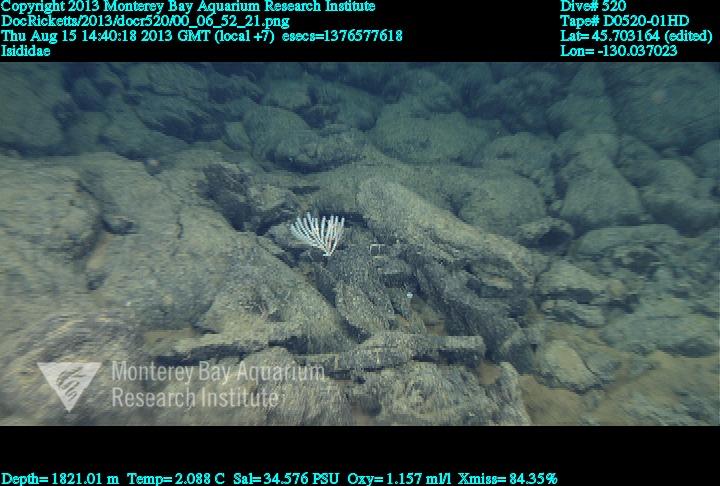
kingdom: Animalia
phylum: Cnidaria
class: Anthozoa
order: Scleralcyonacea
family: Keratoisididae
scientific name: Keratoisididae
